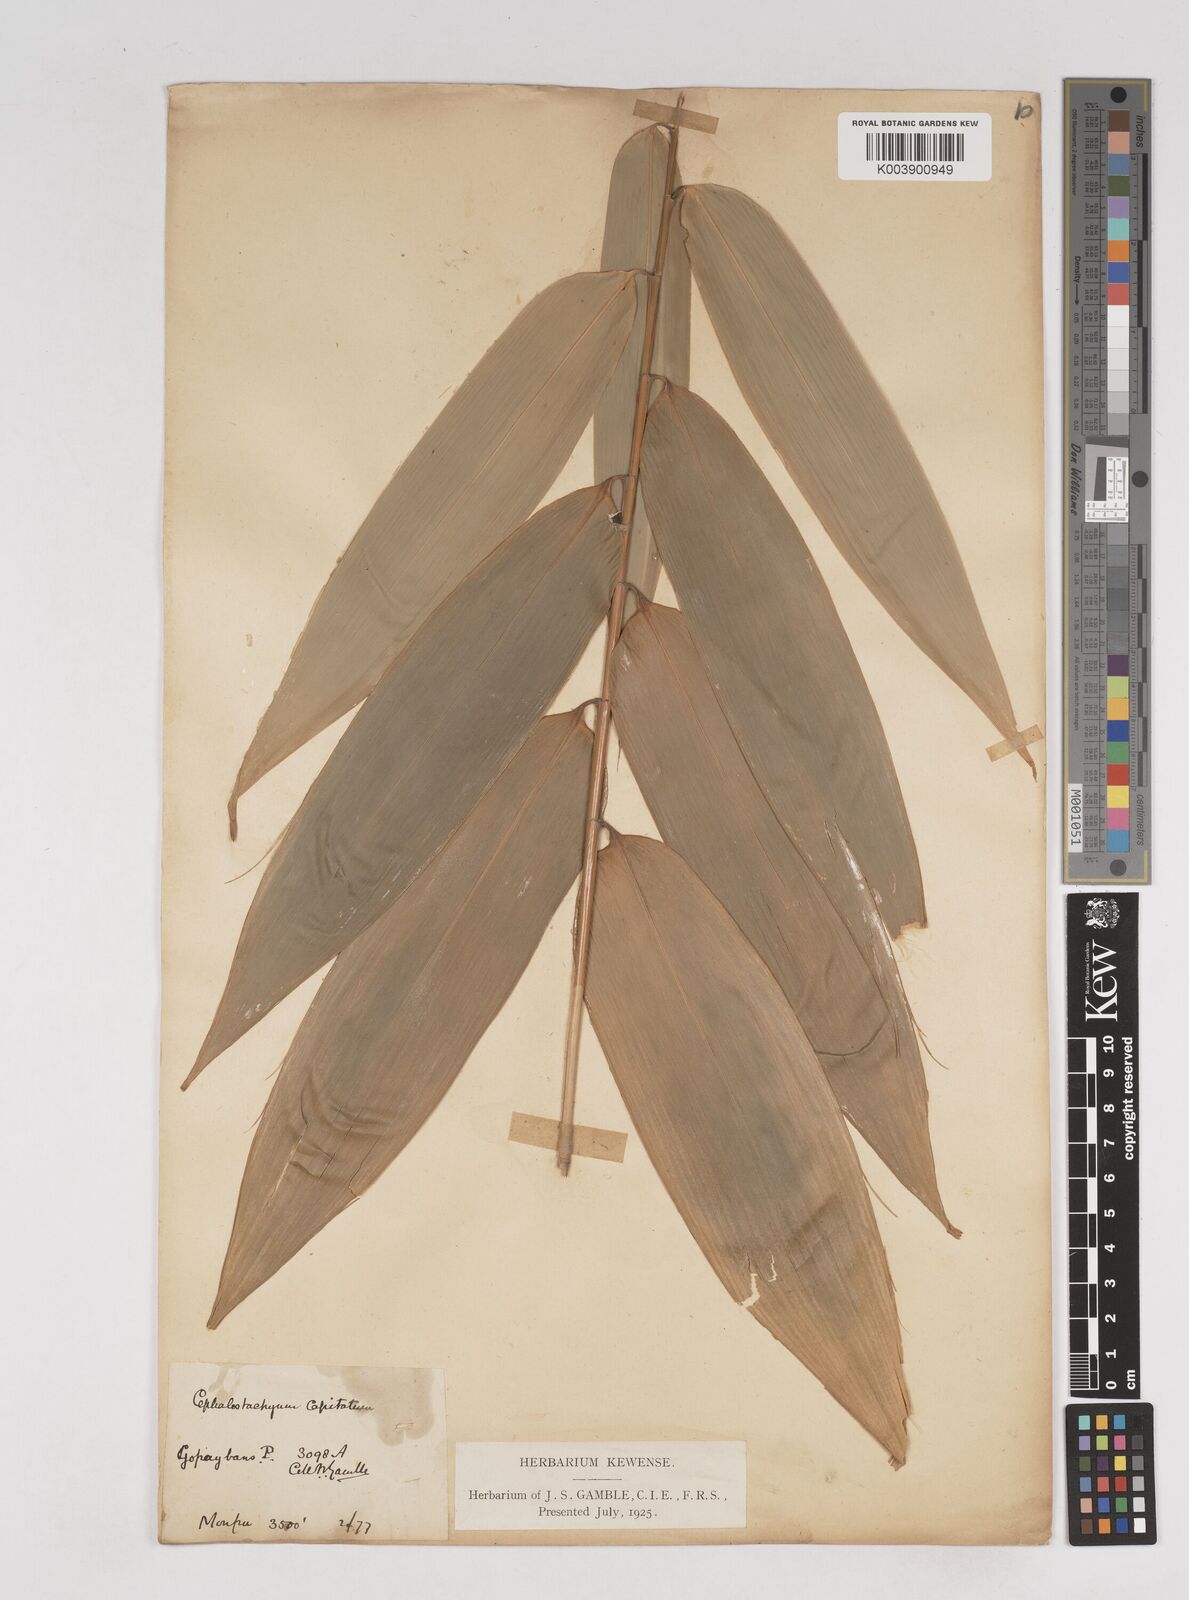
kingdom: Plantae
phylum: Tracheophyta
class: Liliopsida
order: Poales
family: Poaceae
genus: Cephalostachyum
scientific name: Cephalostachyum capitatum
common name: Hollow bamboo
